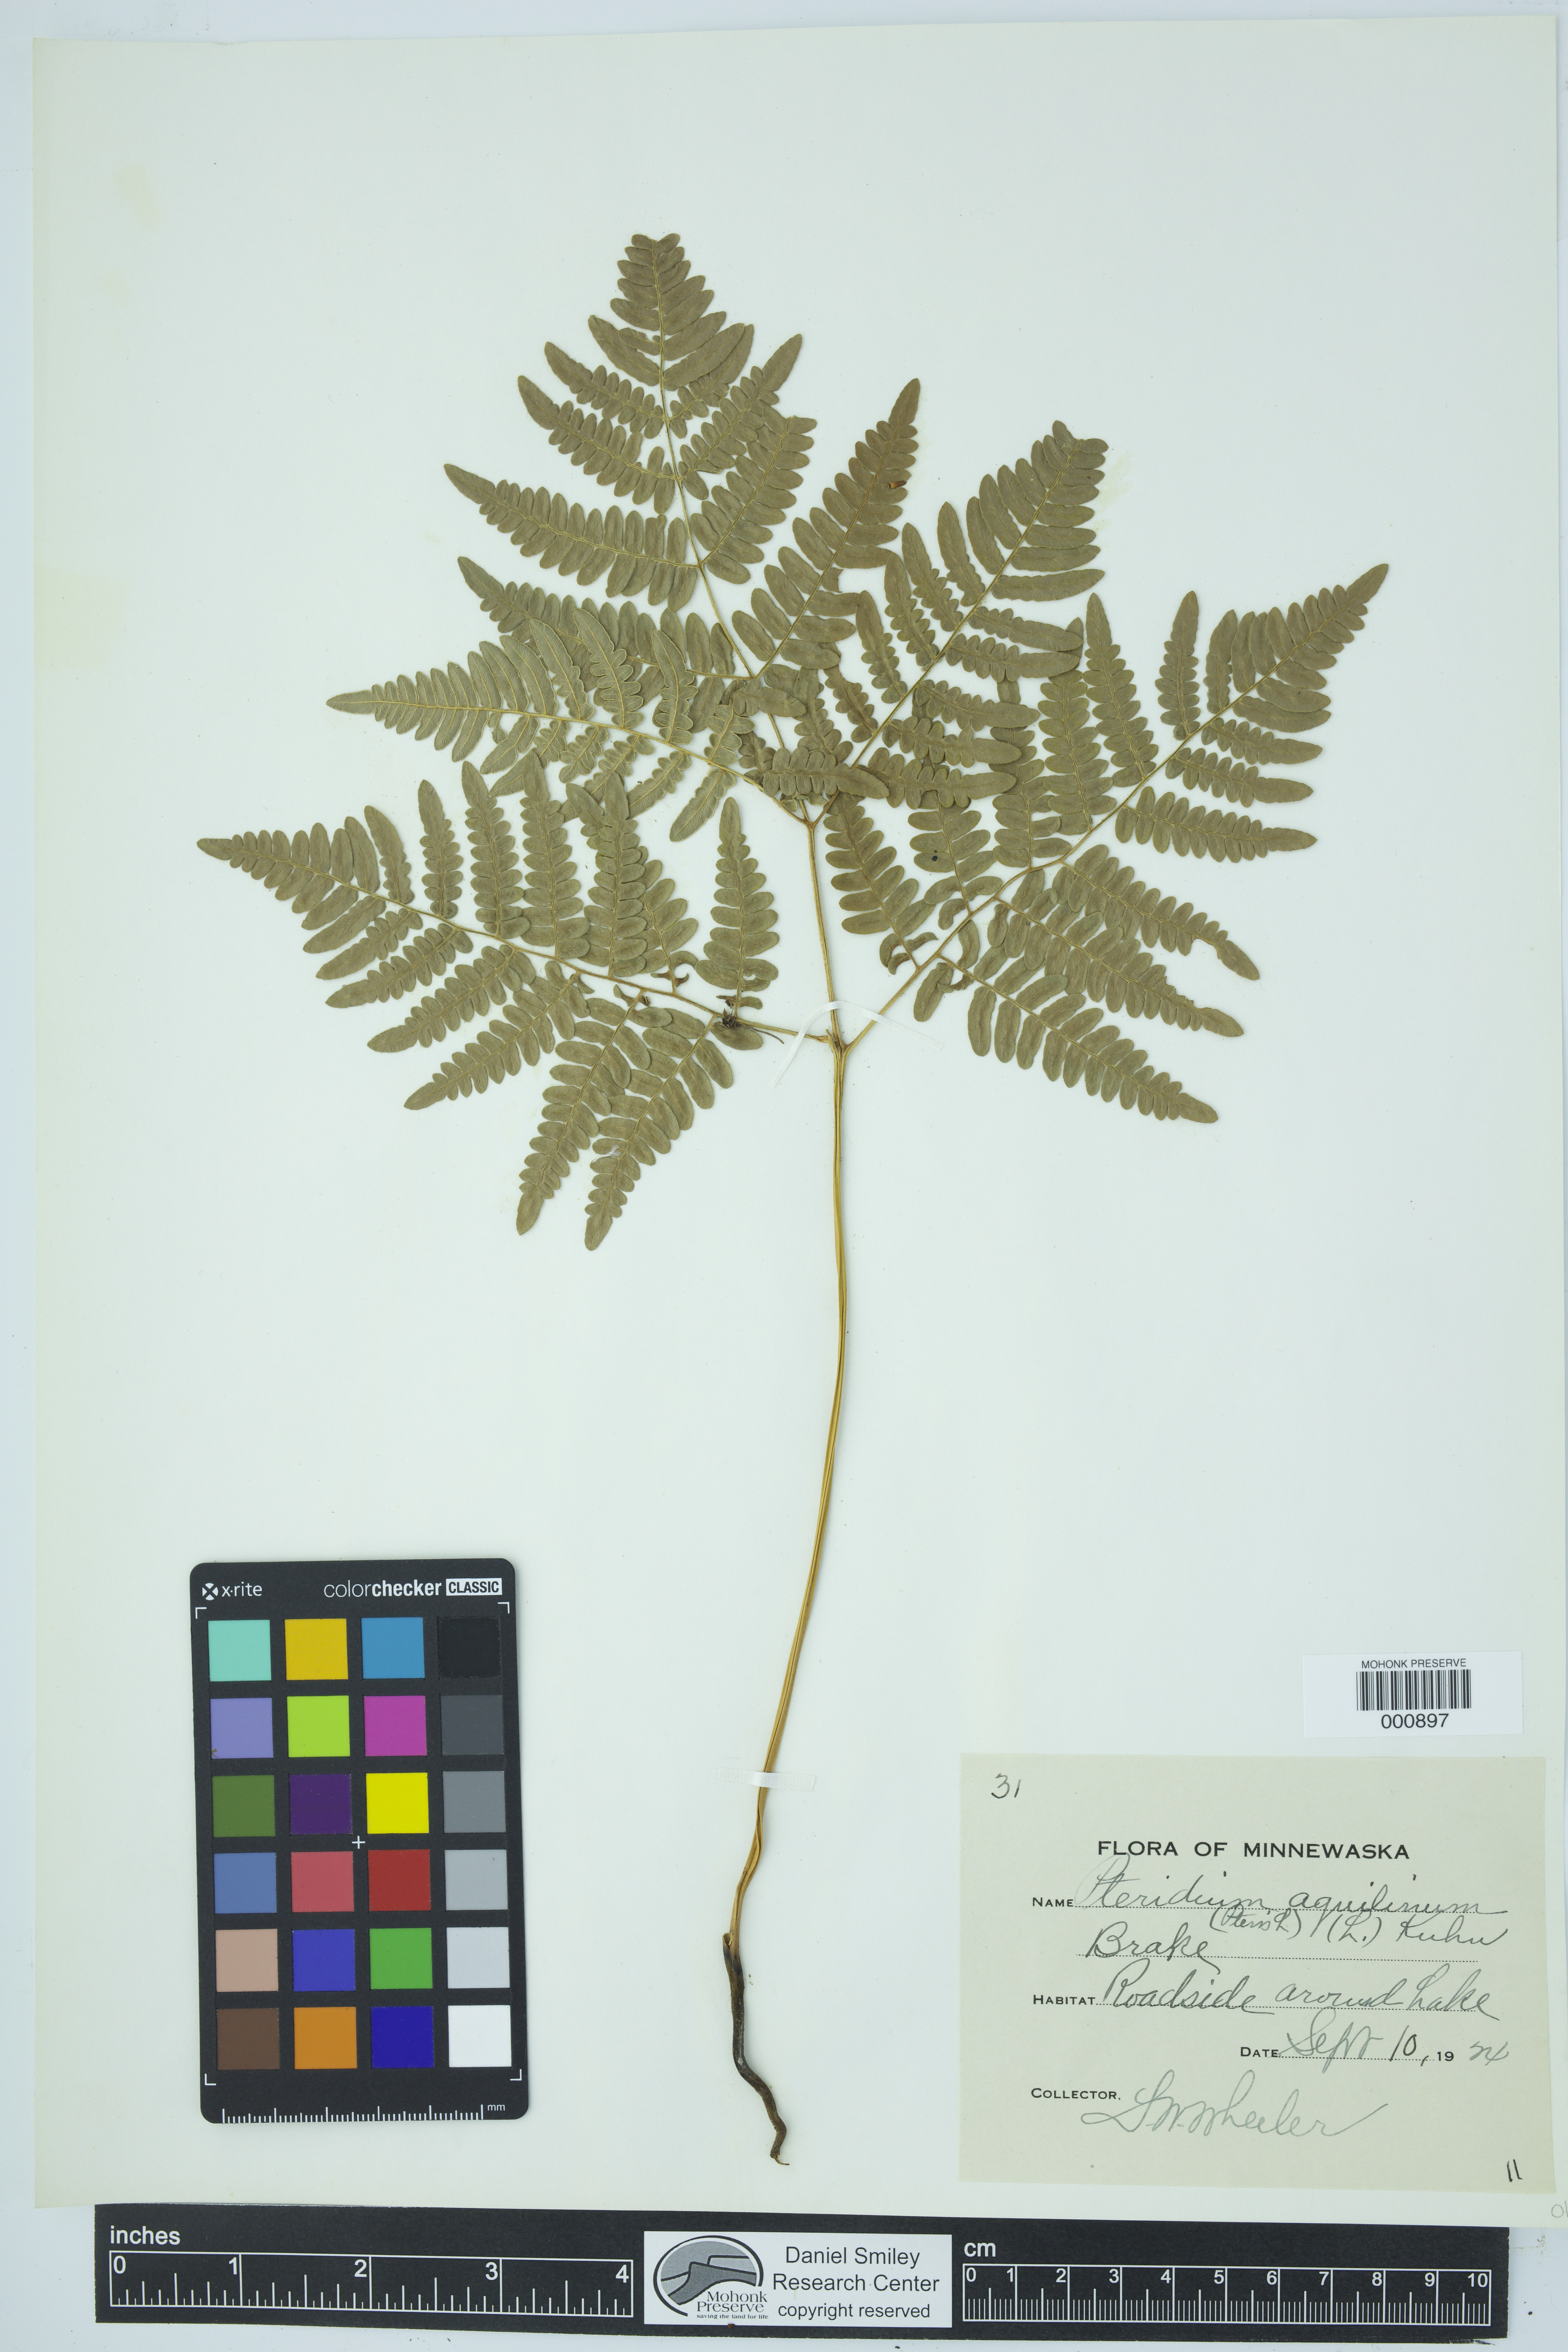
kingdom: Plantae
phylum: Tracheophyta
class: Polypodiopsida
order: Polypodiales
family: Dennstaedtiaceae
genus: Pteridium
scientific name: Pteridium aquilinum
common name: Bracken
